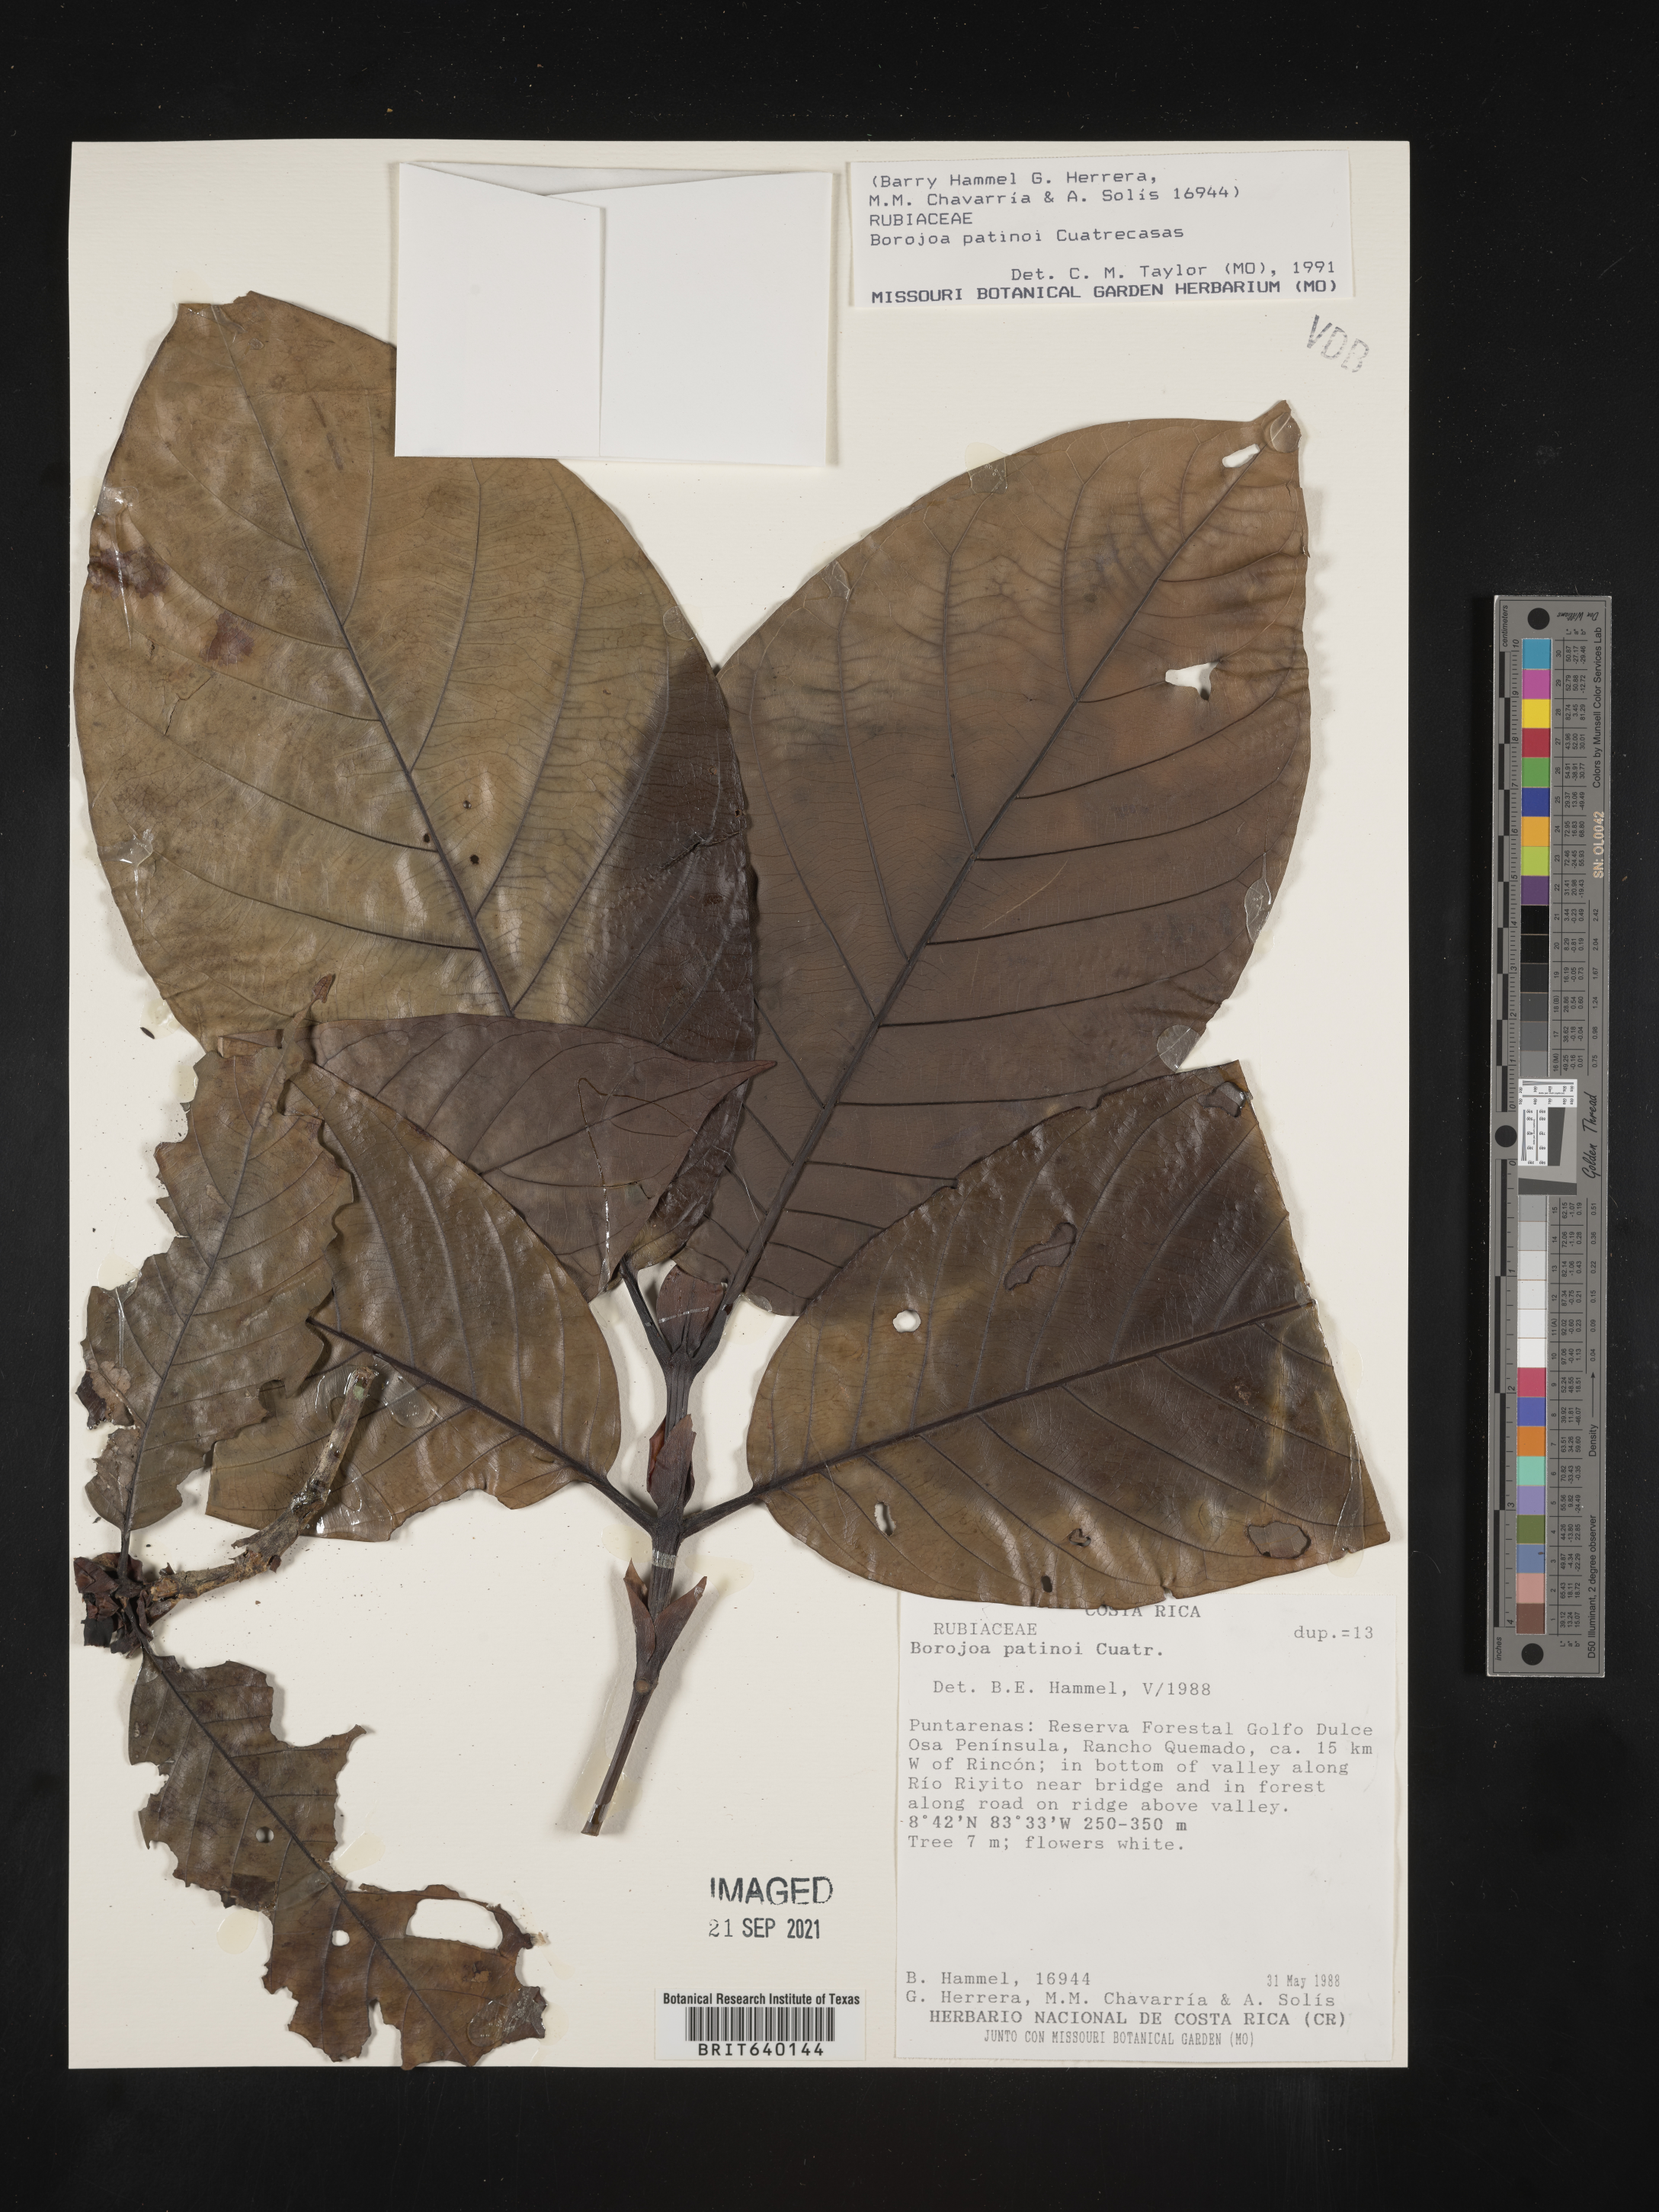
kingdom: Plantae
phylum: Tracheophyta
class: Magnoliopsida
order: Gentianales
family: Rubiaceae
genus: Alibertia
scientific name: Alibertia
